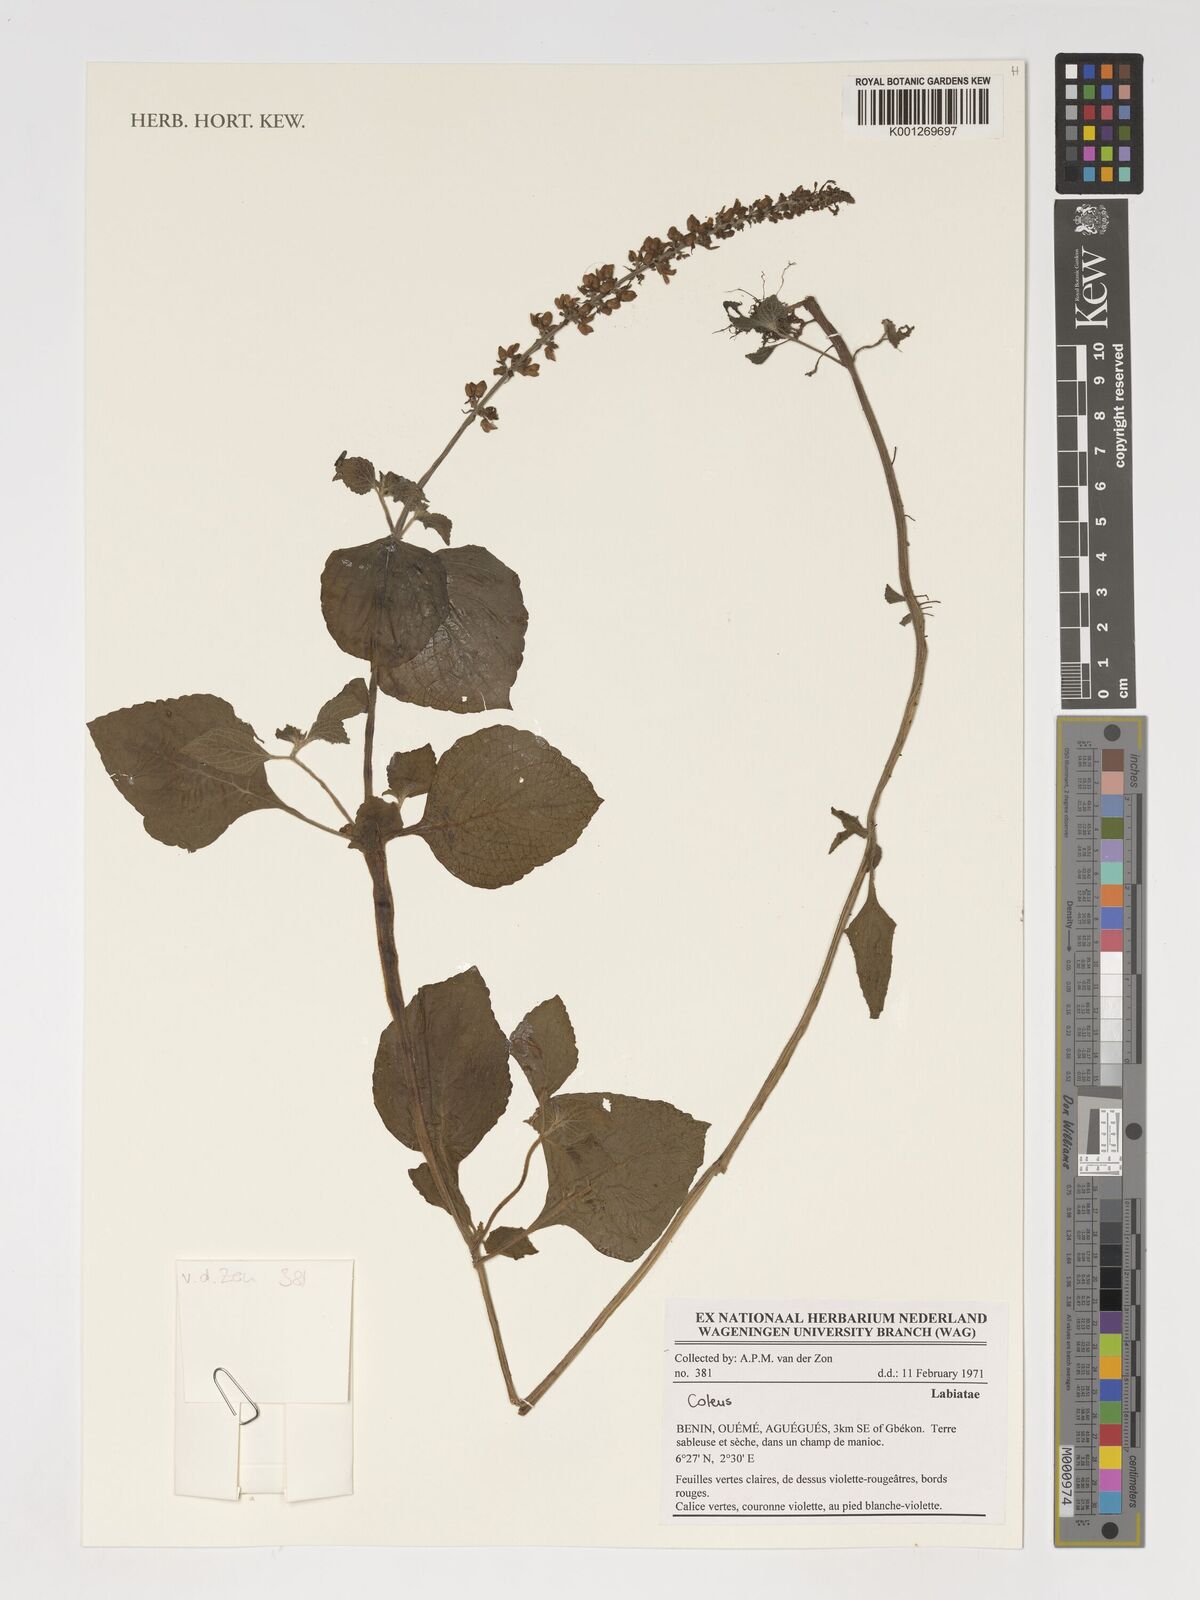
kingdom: Plantae
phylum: Tracheophyta
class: Magnoliopsida
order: Lamiales
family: Lamiaceae
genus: Coleus
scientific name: Coleus
